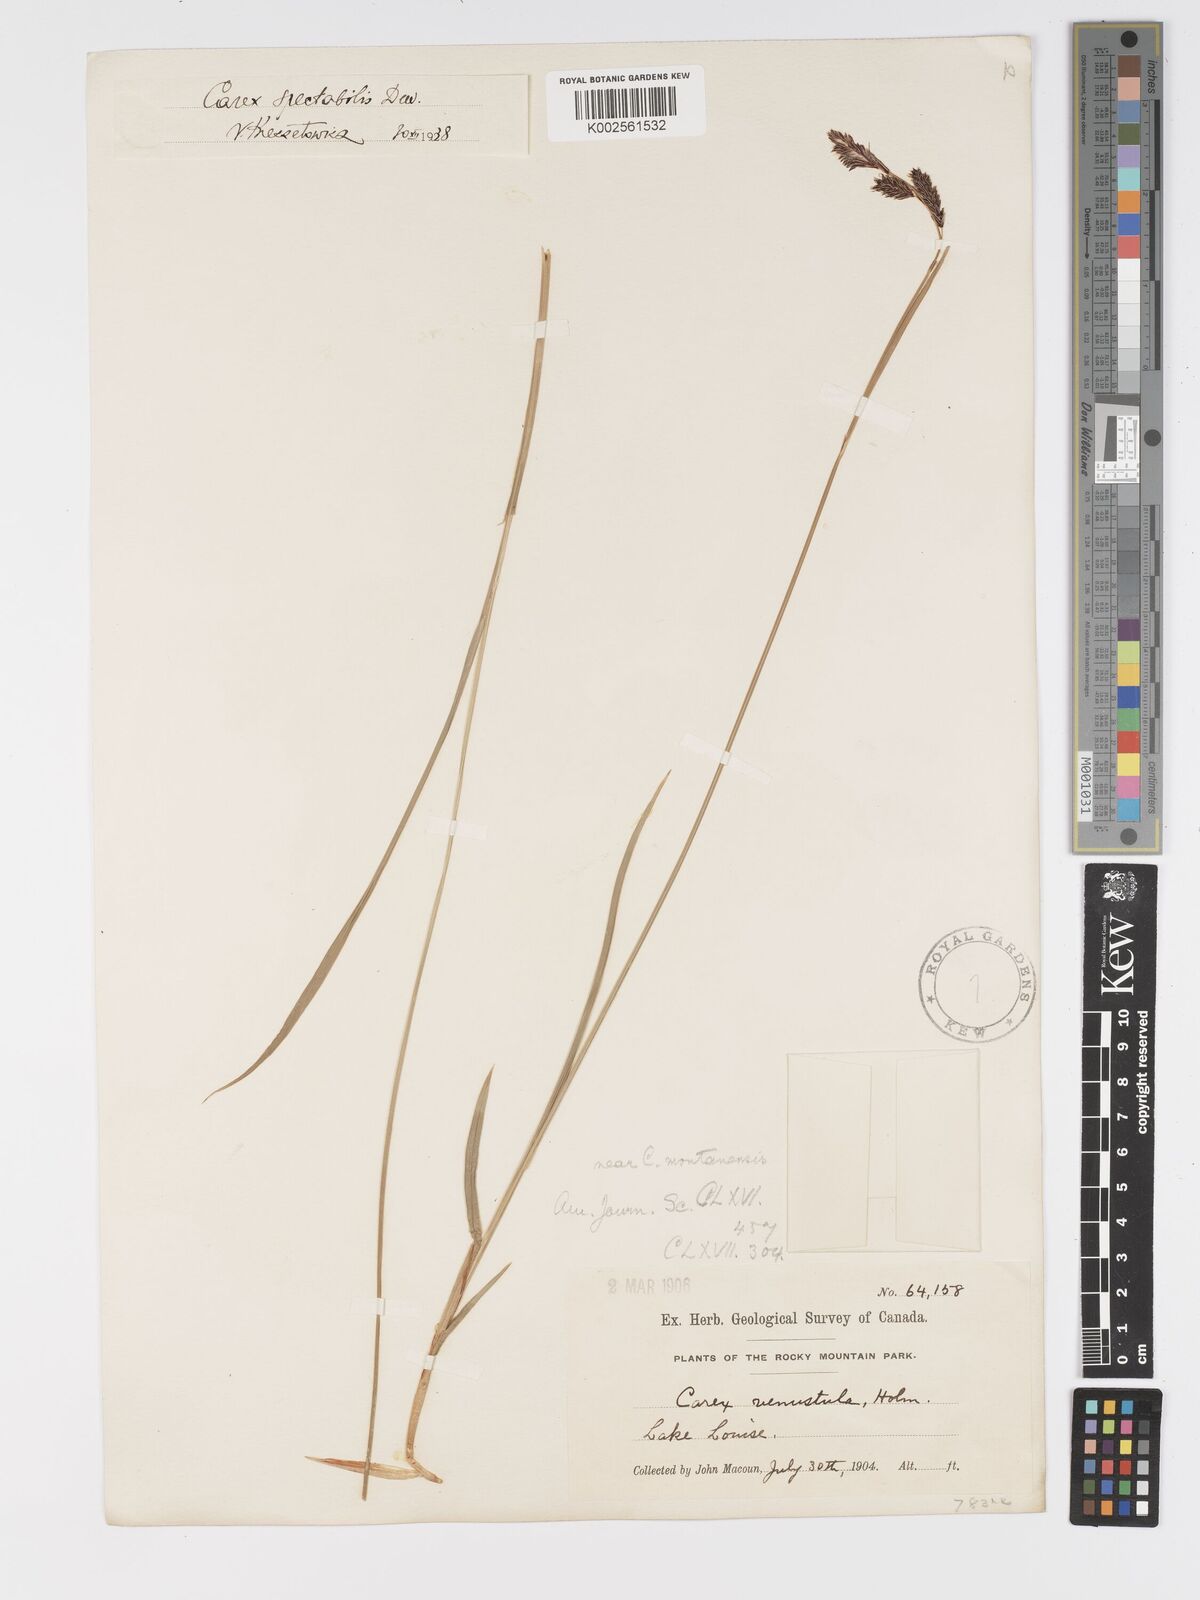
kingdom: Plantae
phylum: Tracheophyta
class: Liliopsida
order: Poales
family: Cyperaceae
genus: Carex
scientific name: Carex spectabilis
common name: Northwestern showy sedge
